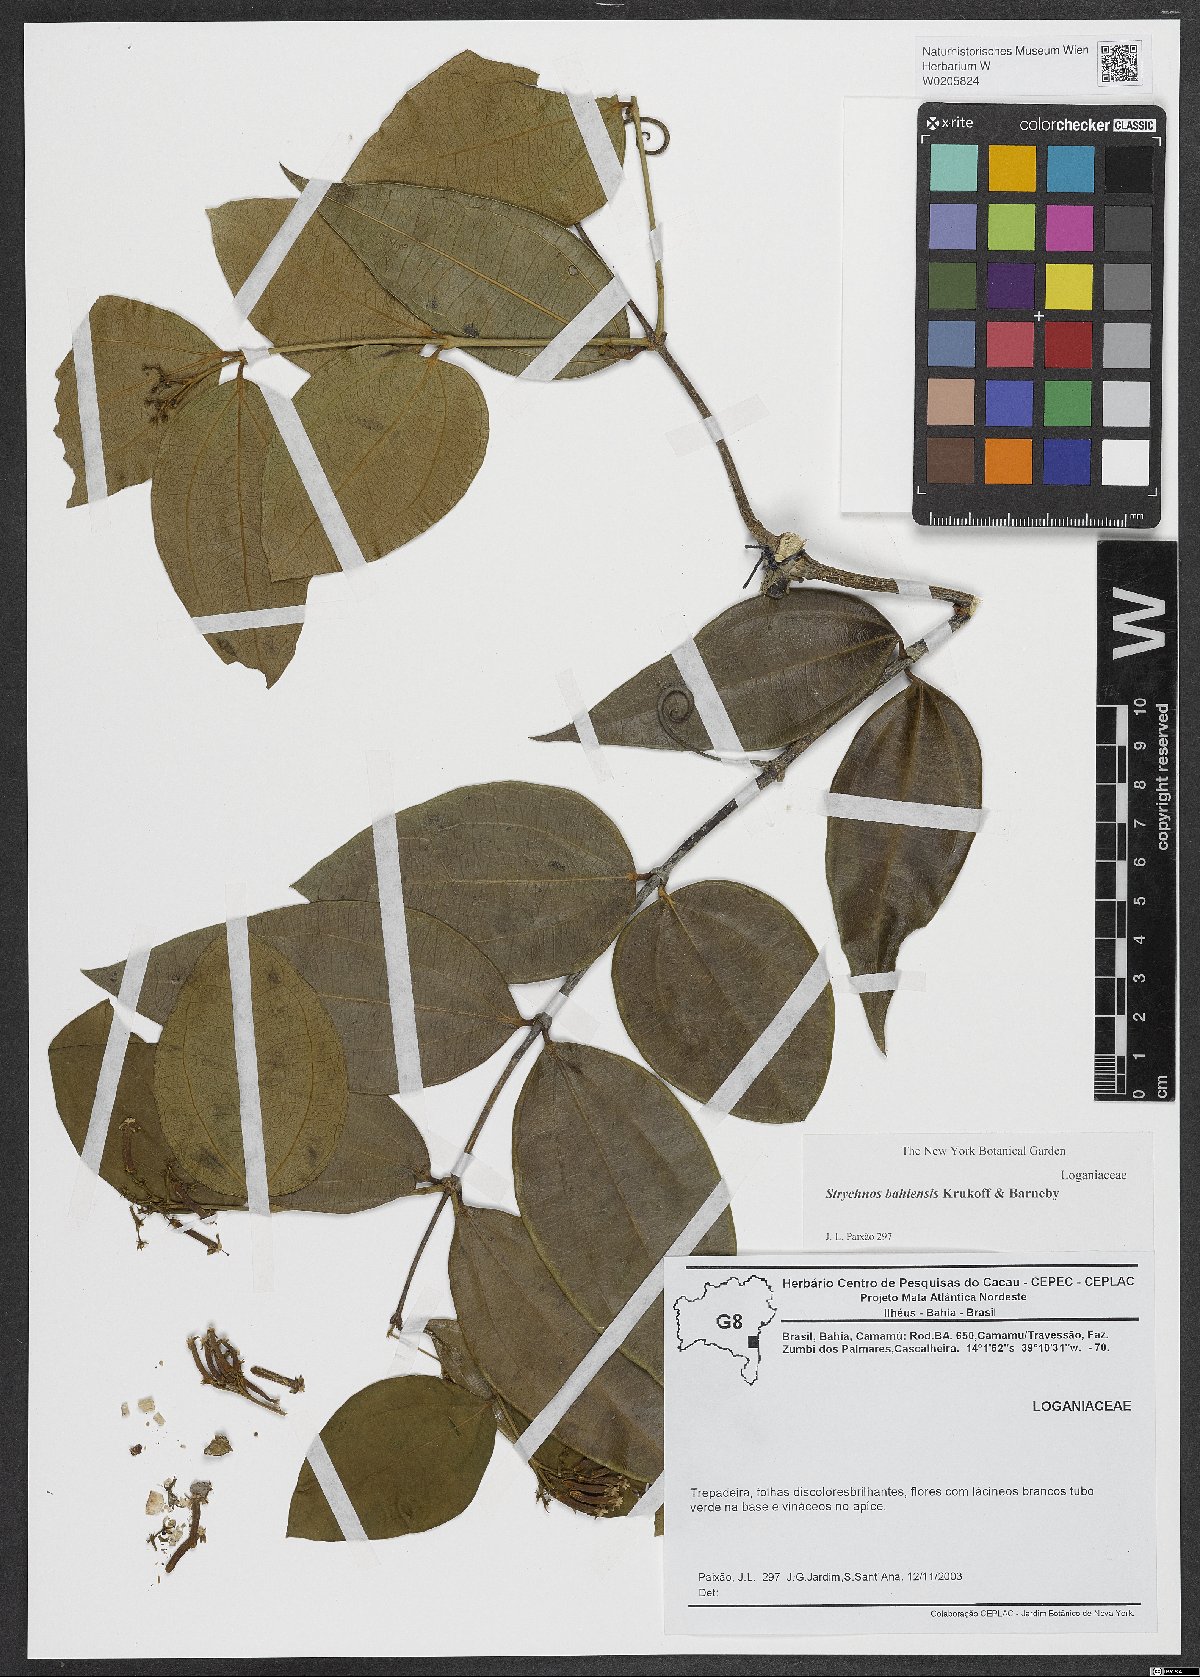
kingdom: Plantae
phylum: Tracheophyta
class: Magnoliopsida
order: Gentianales
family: Loganiaceae
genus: Strychnos
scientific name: Strychnos bahiensis
